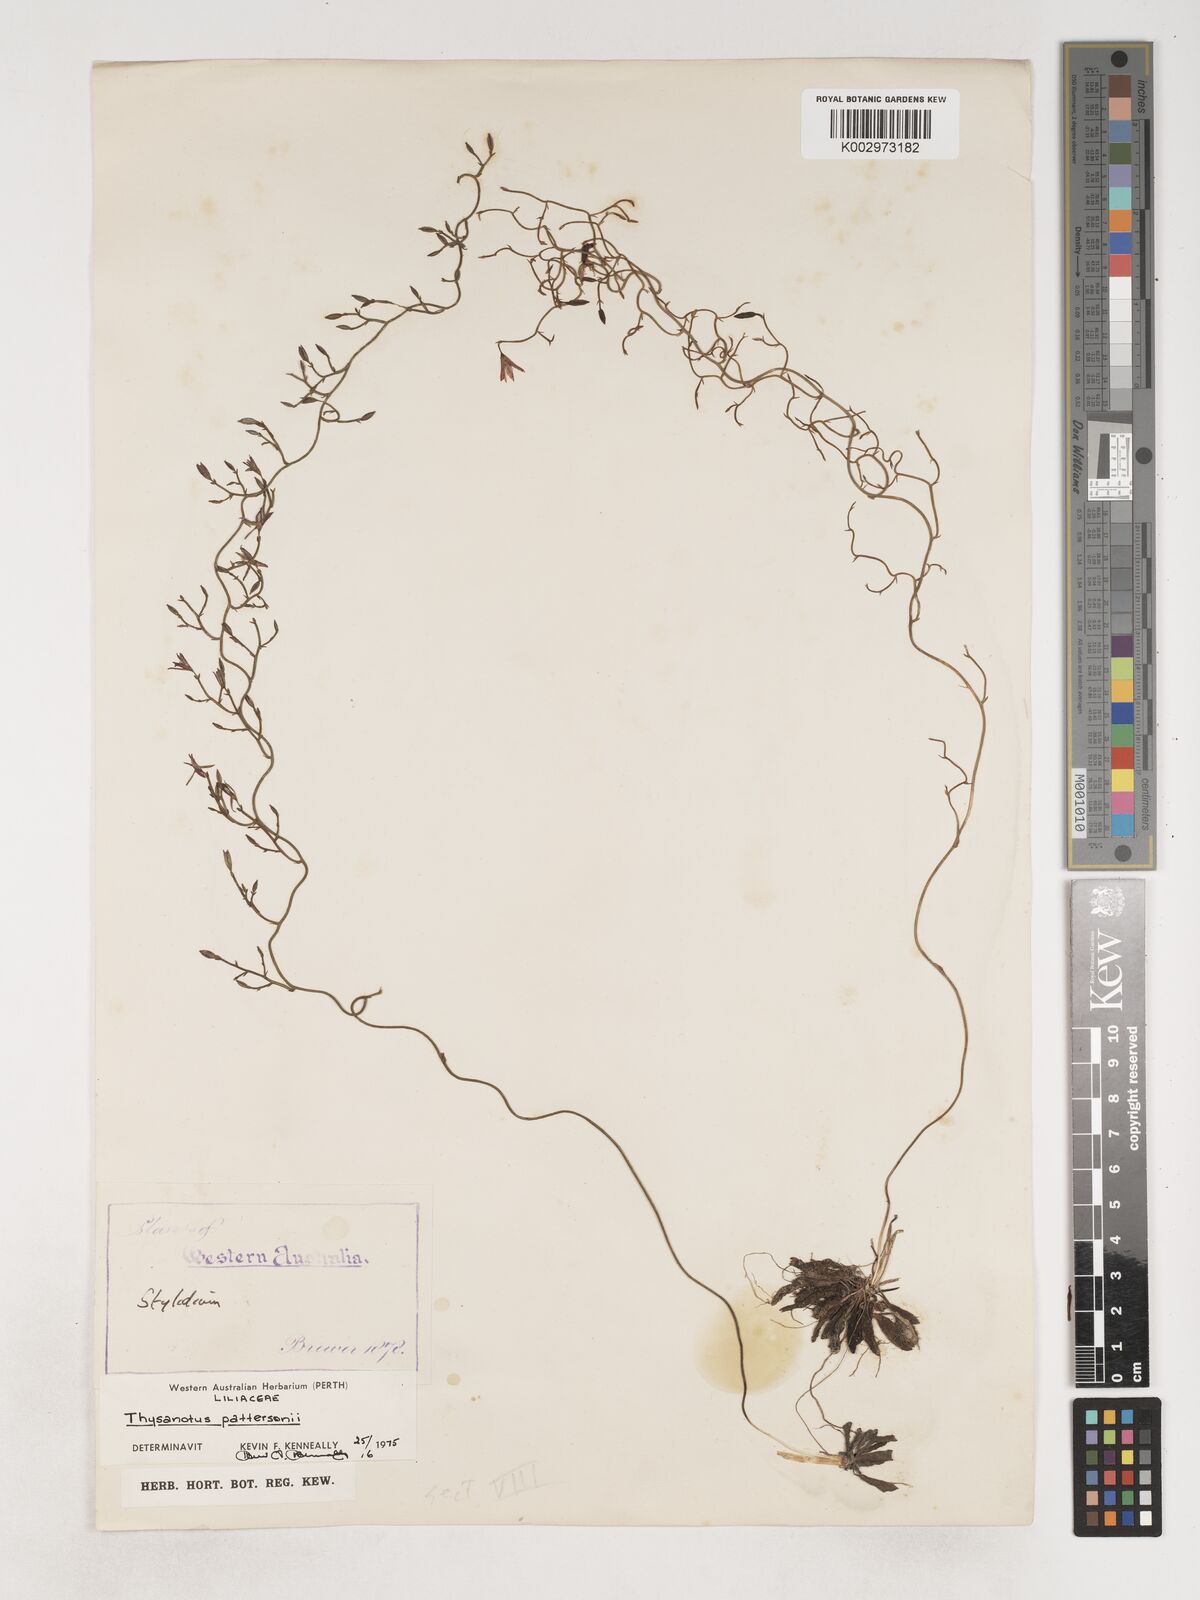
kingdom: Plantae
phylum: Tracheophyta
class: Liliopsida
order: Asparagales
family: Asparagaceae
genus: Thysanotus
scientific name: Thysanotus patersonii
